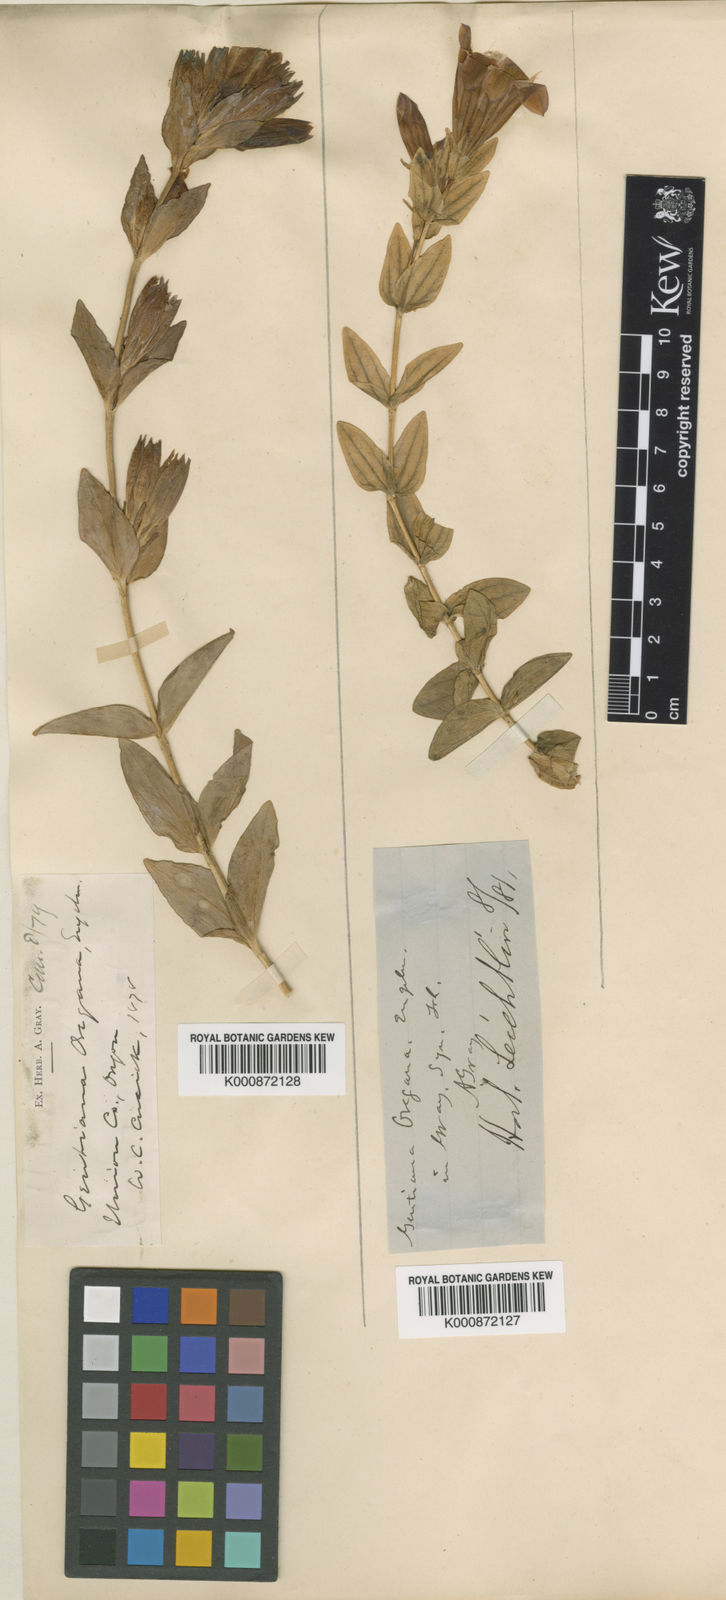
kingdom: Plantae
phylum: Tracheophyta
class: Magnoliopsida
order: Gentianales
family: Gentianaceae
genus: Gentiana
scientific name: Gentiana affinis
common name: Rocky mountain gentian
